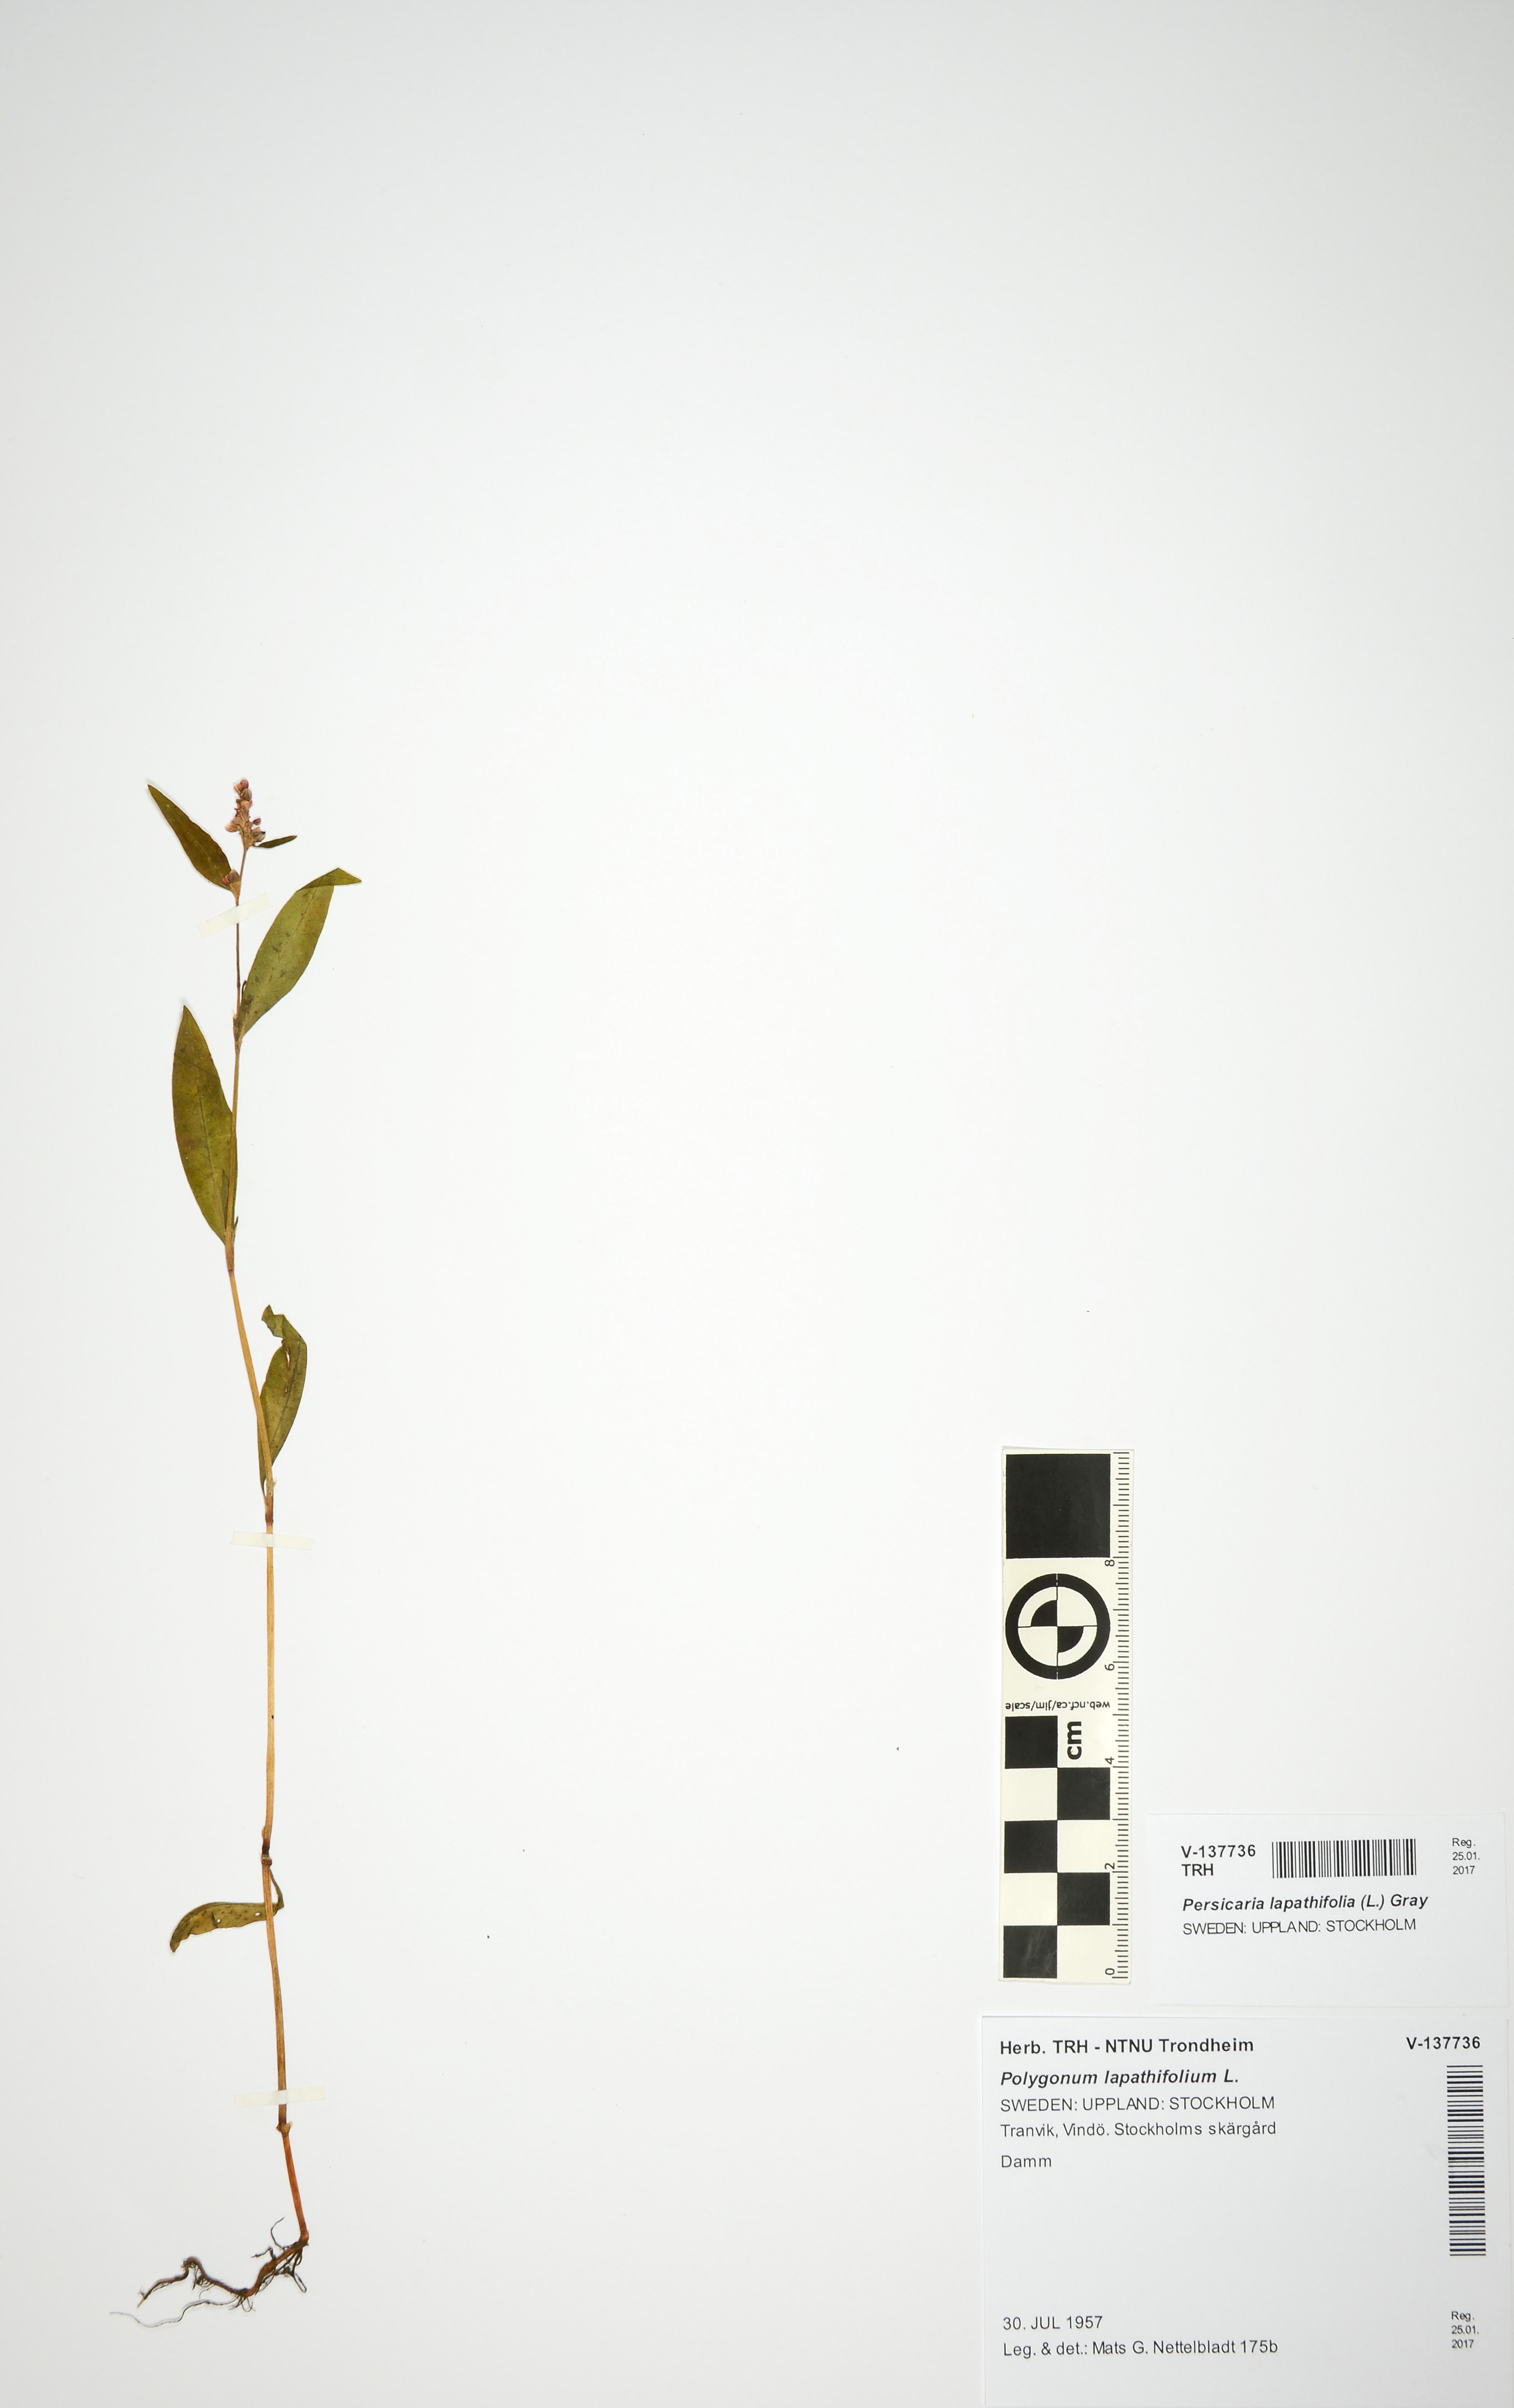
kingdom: Plantae
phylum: Tracheophyta
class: Magnoliopsida
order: Caryophyllales
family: Polygonaceae
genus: Persicaria
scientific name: Persicaria lapathifolia
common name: Curlytop knotweed
